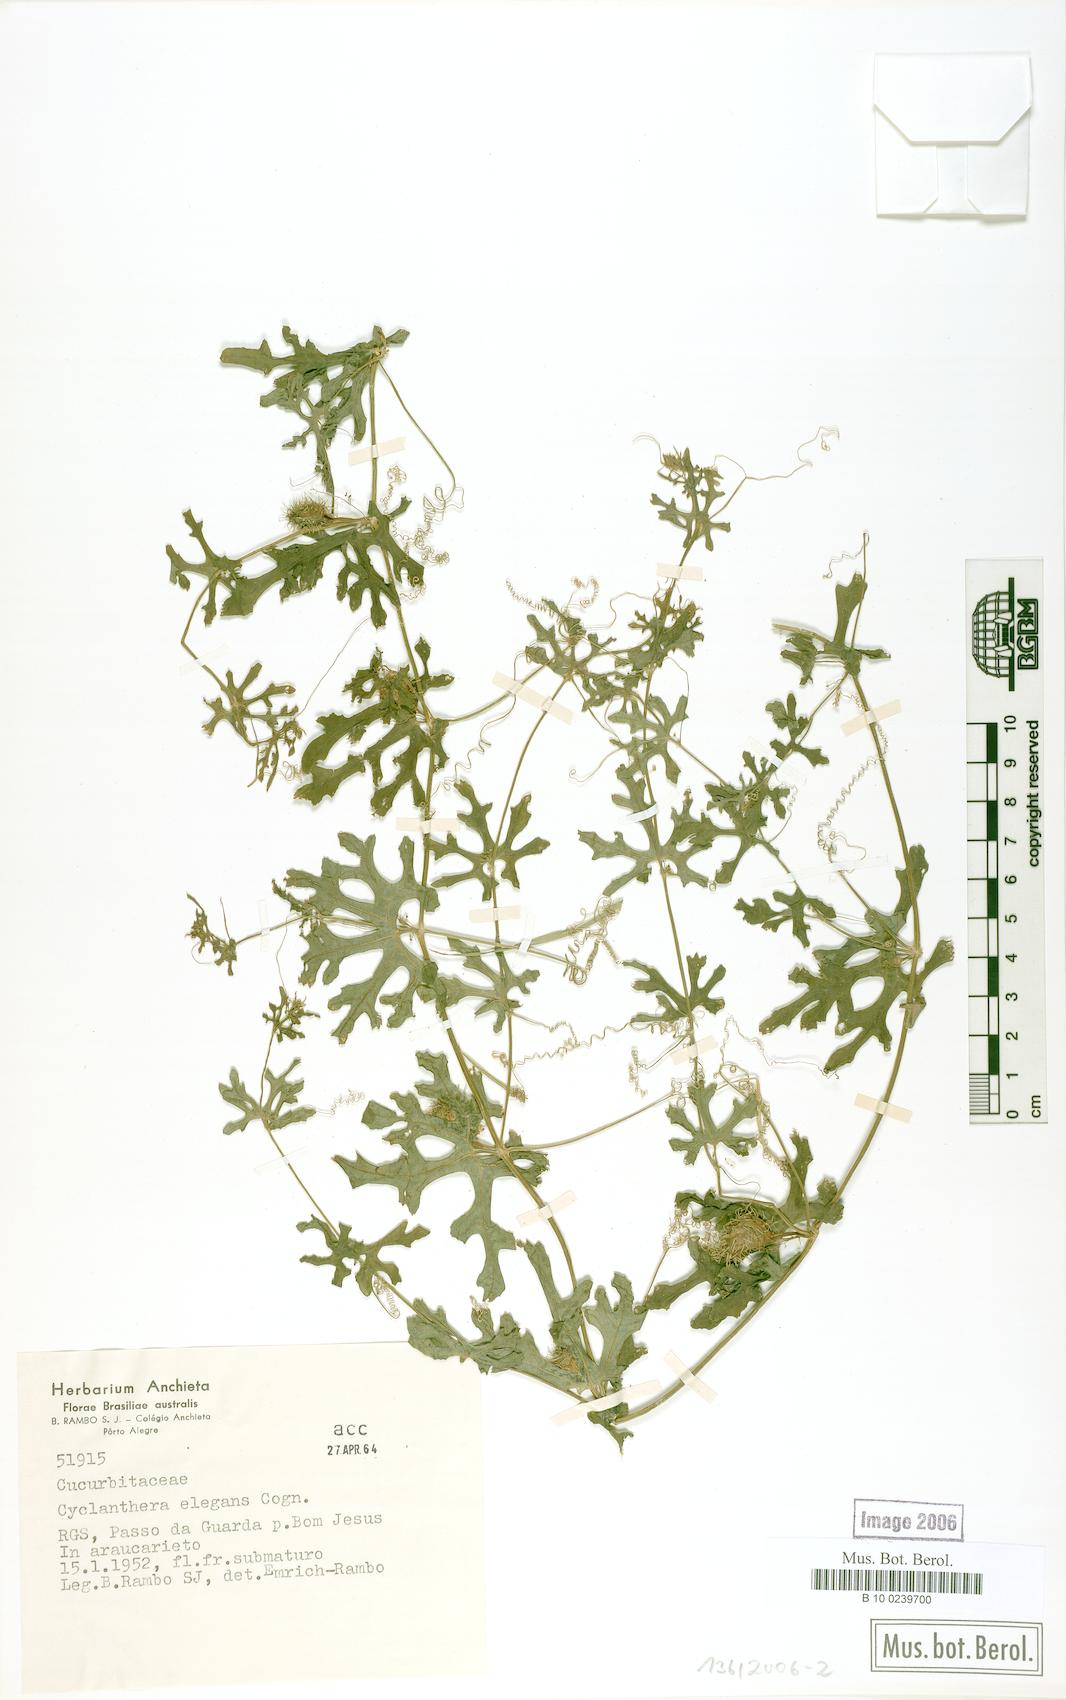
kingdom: Plantae
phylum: Tracheophyta
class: Magnoliopsida
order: Cucurbitales
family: Cucurbitaceae
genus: Cyclanthera
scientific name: Cyclanthera tenuisepala
